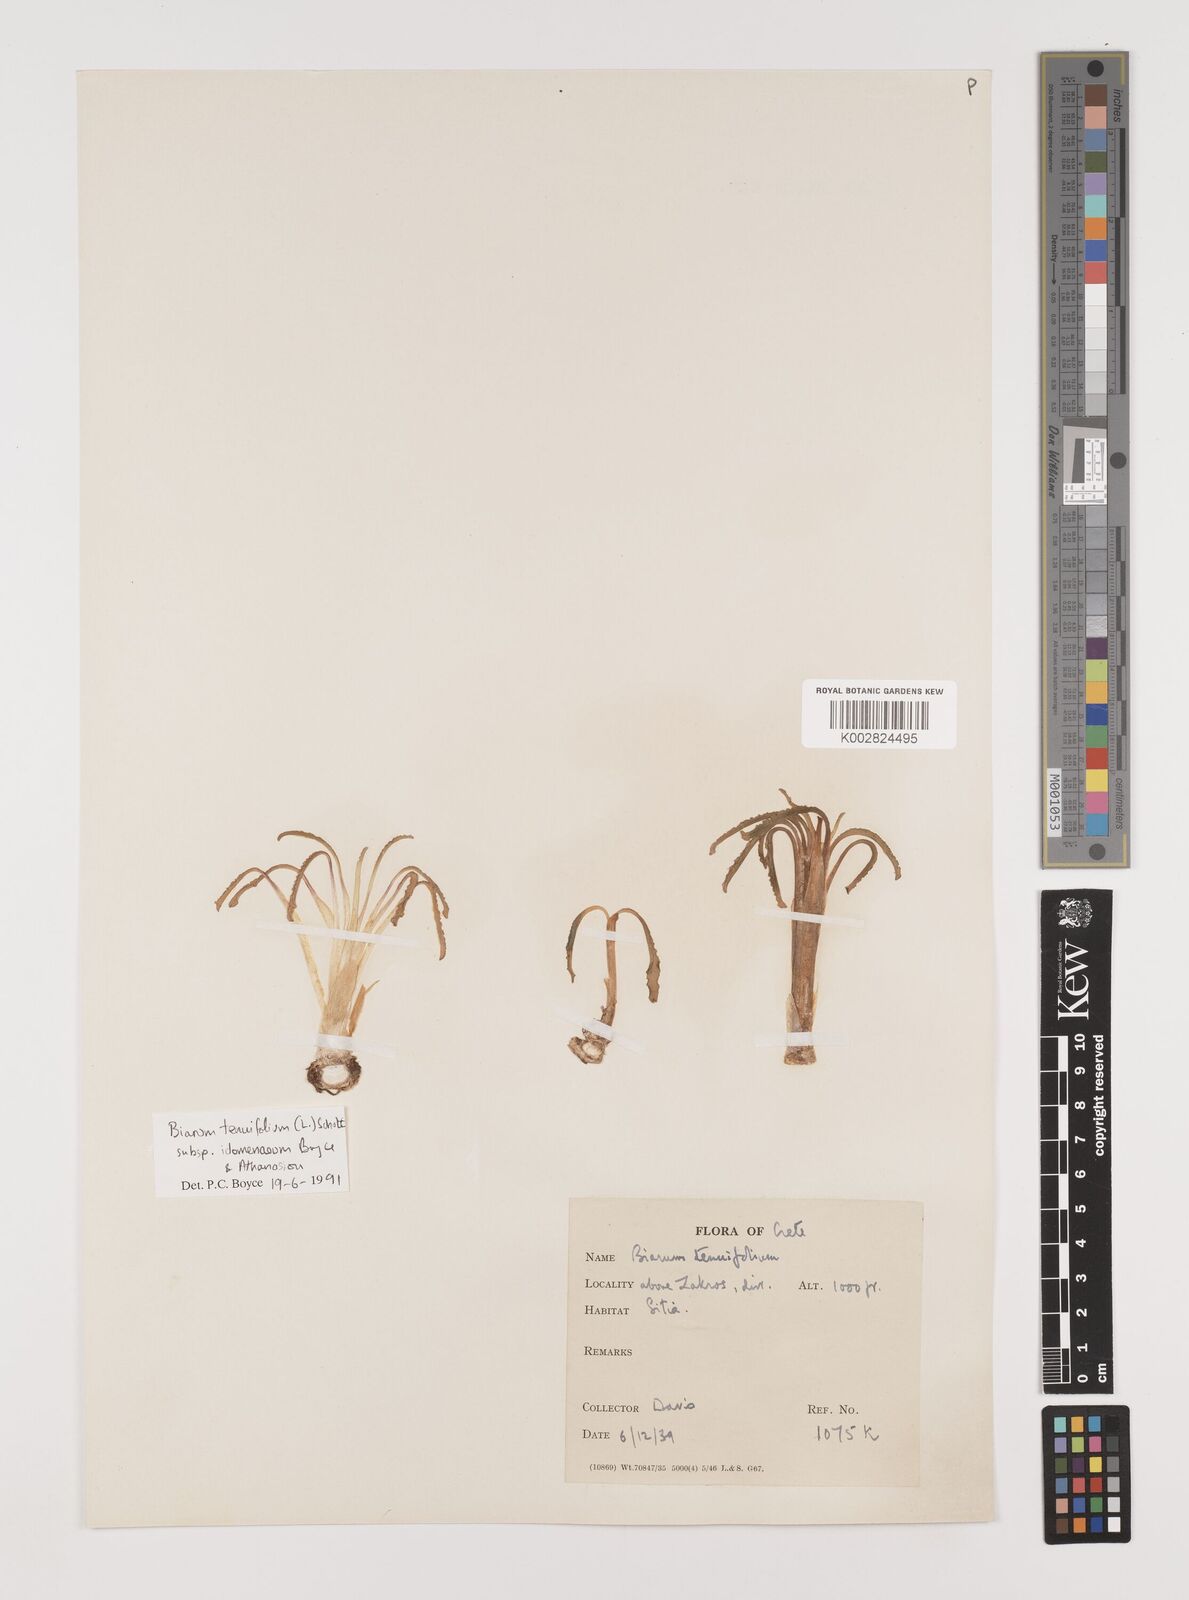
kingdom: Plantae
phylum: Tracheophyta
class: Liliopsida
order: Alismatales
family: Araceae
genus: Biarum
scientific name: Biarum tenuifolium
